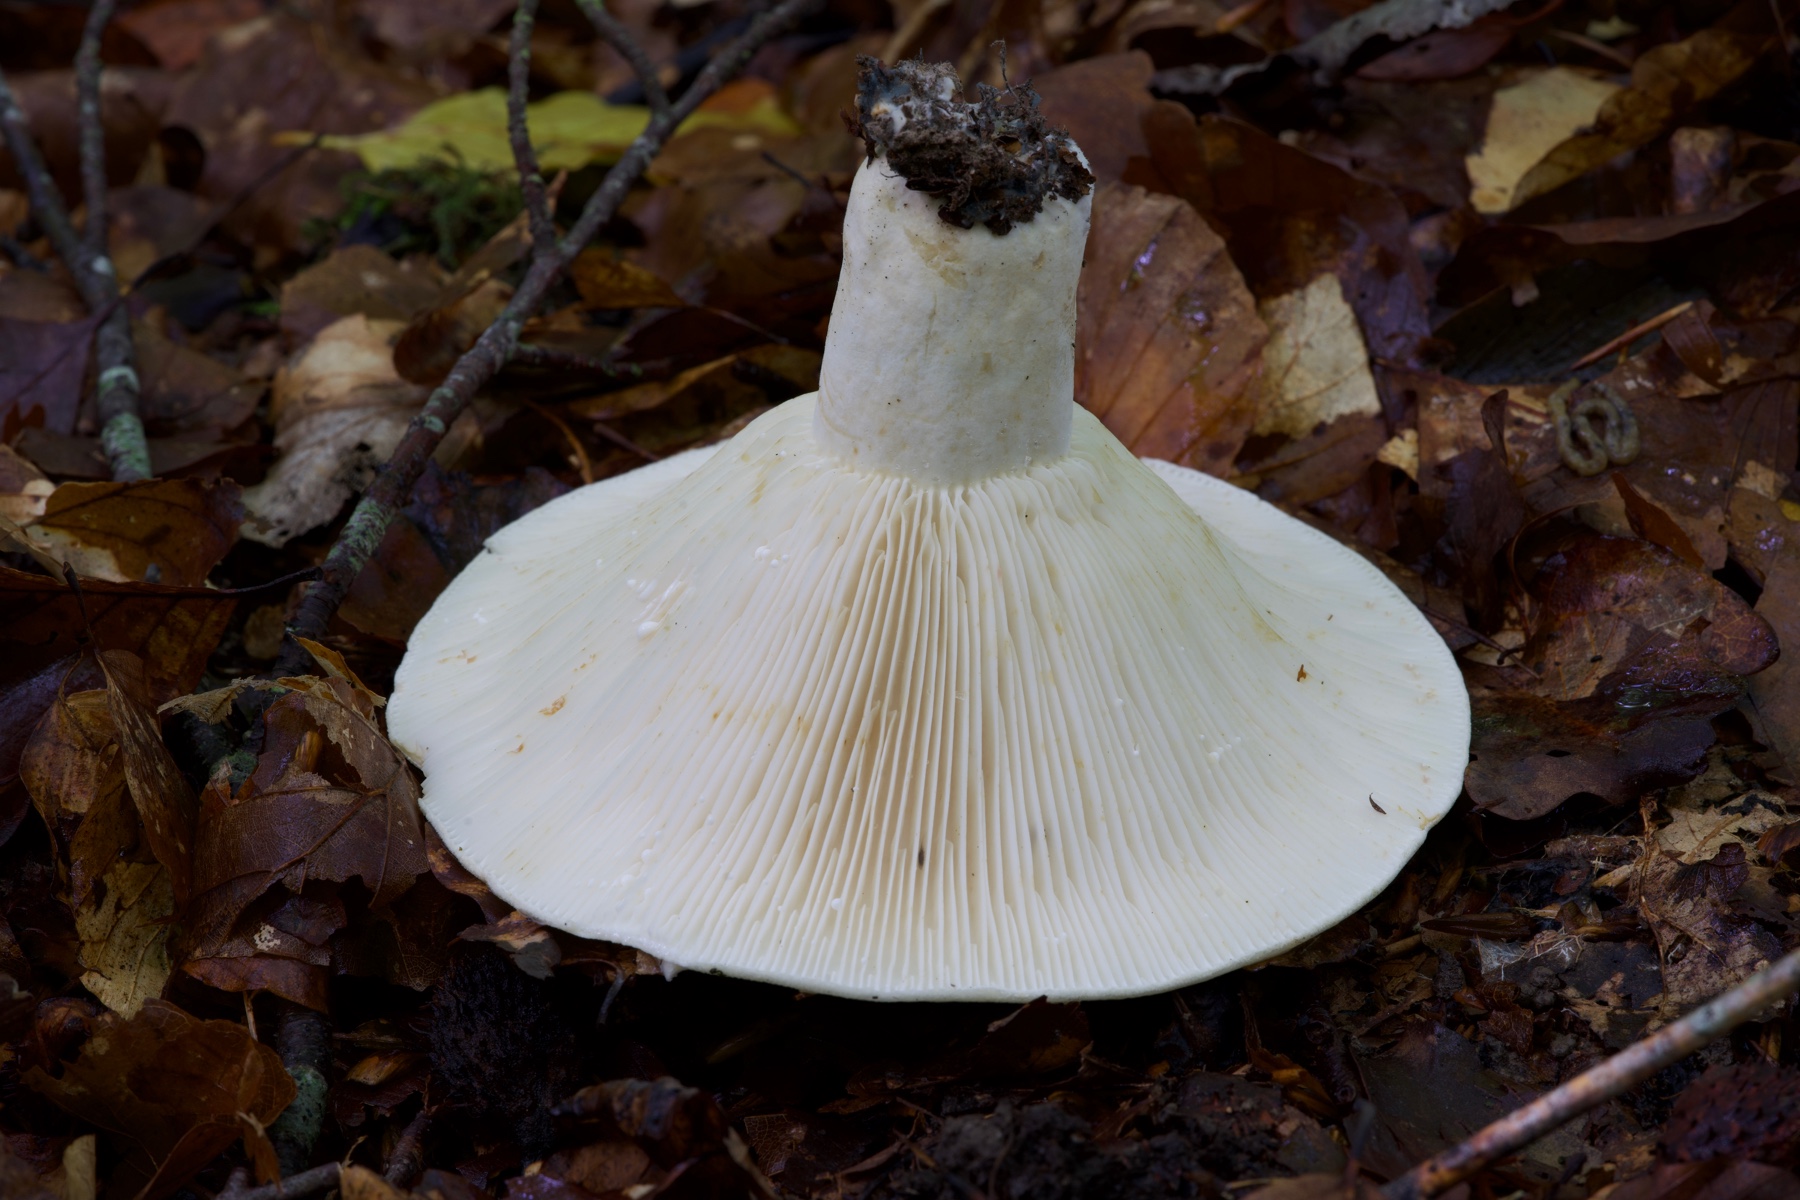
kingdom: Fungi
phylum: Basidiomycota
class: Agaricomycetes
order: Russulales
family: Russulaceae
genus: Lactifluus
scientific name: Lactifluus vellereus
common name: hvidfiltet mælkehat
